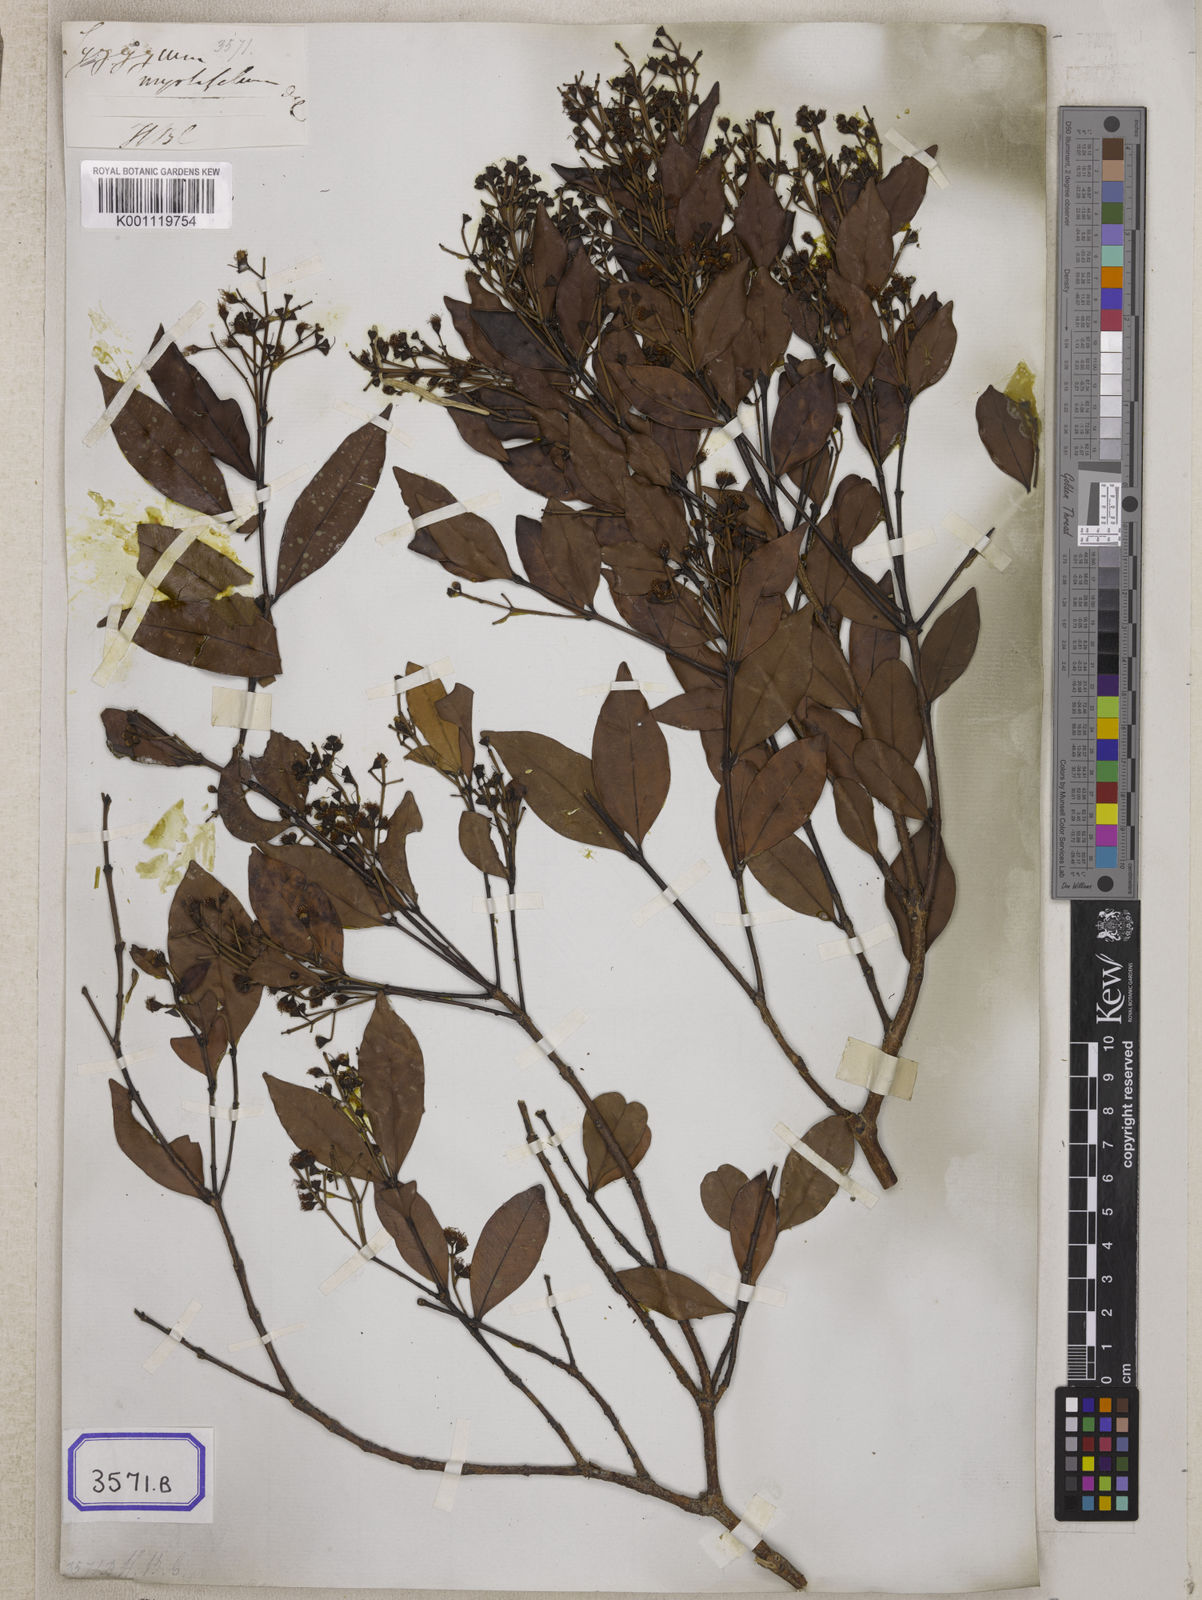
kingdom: Plantae
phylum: Tracheophyta
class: Magnoliopsida
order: Myrtales
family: Myrtaceae
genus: Syzygium
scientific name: Syzygium
